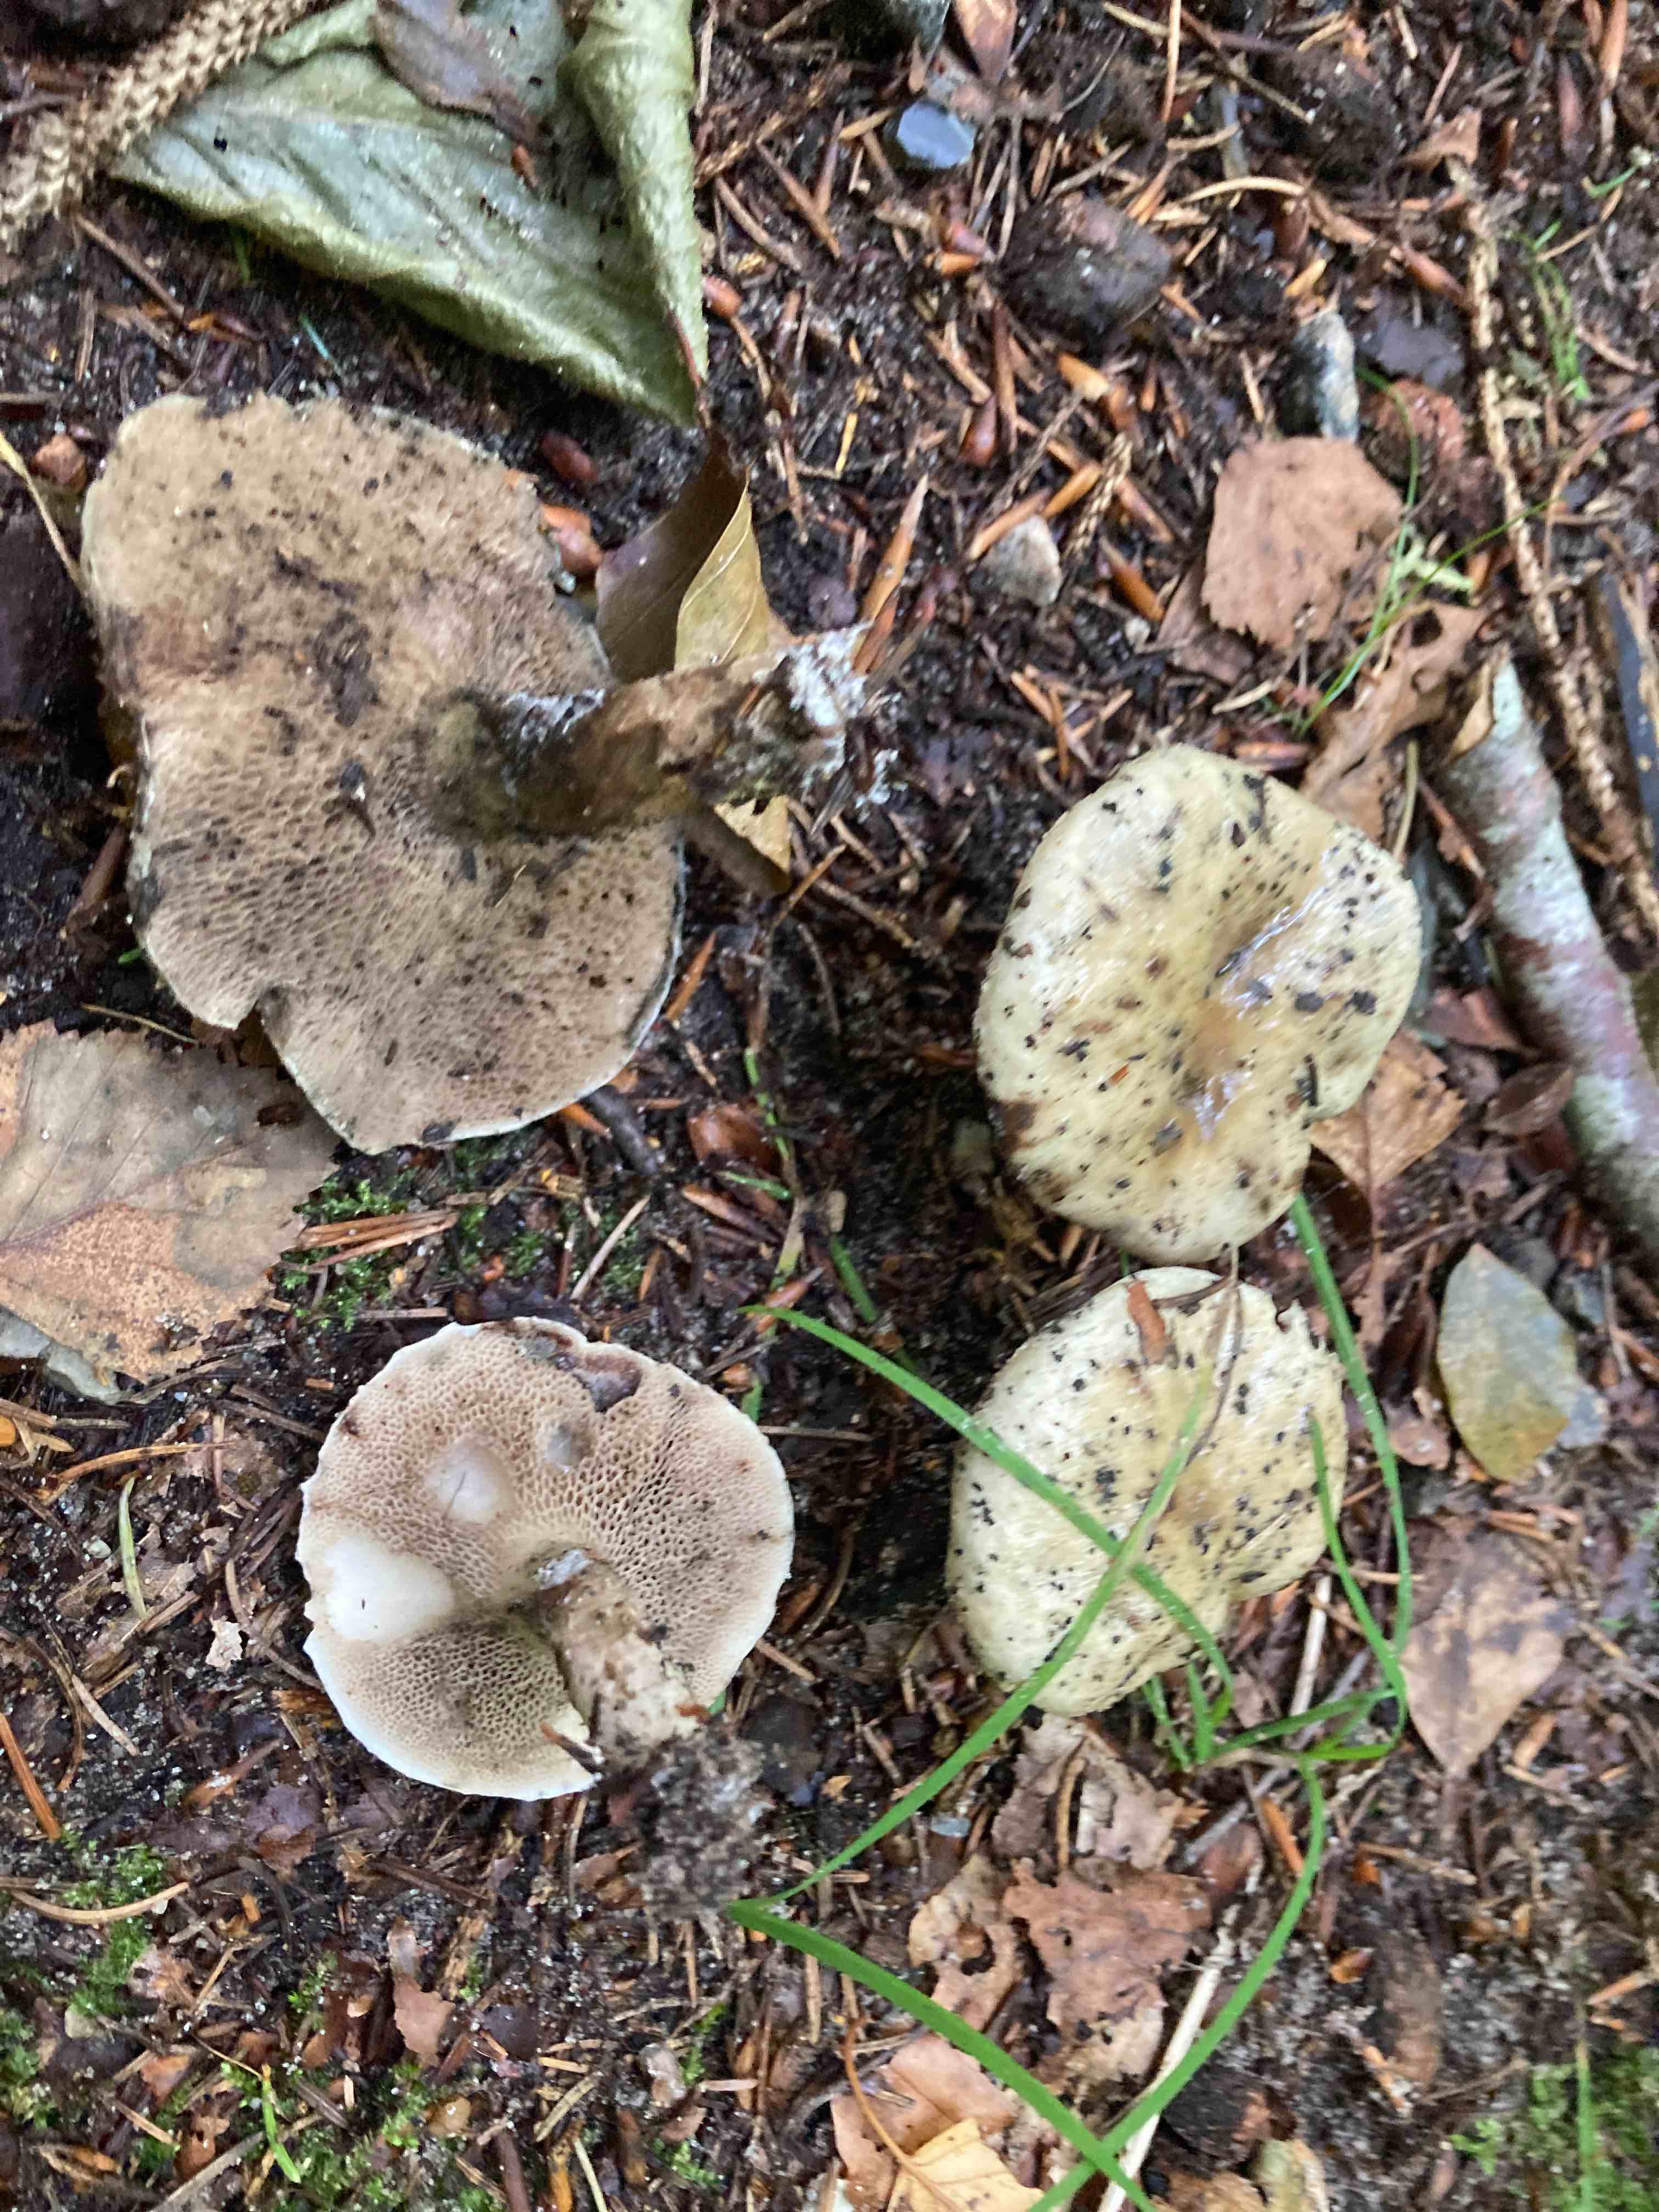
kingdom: Fungi
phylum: Basidiomycota
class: Agaricomycetes
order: Boletales
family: Suillaceae
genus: Suillus
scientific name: Suillus viscidus
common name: olivengrå slimrørhat
